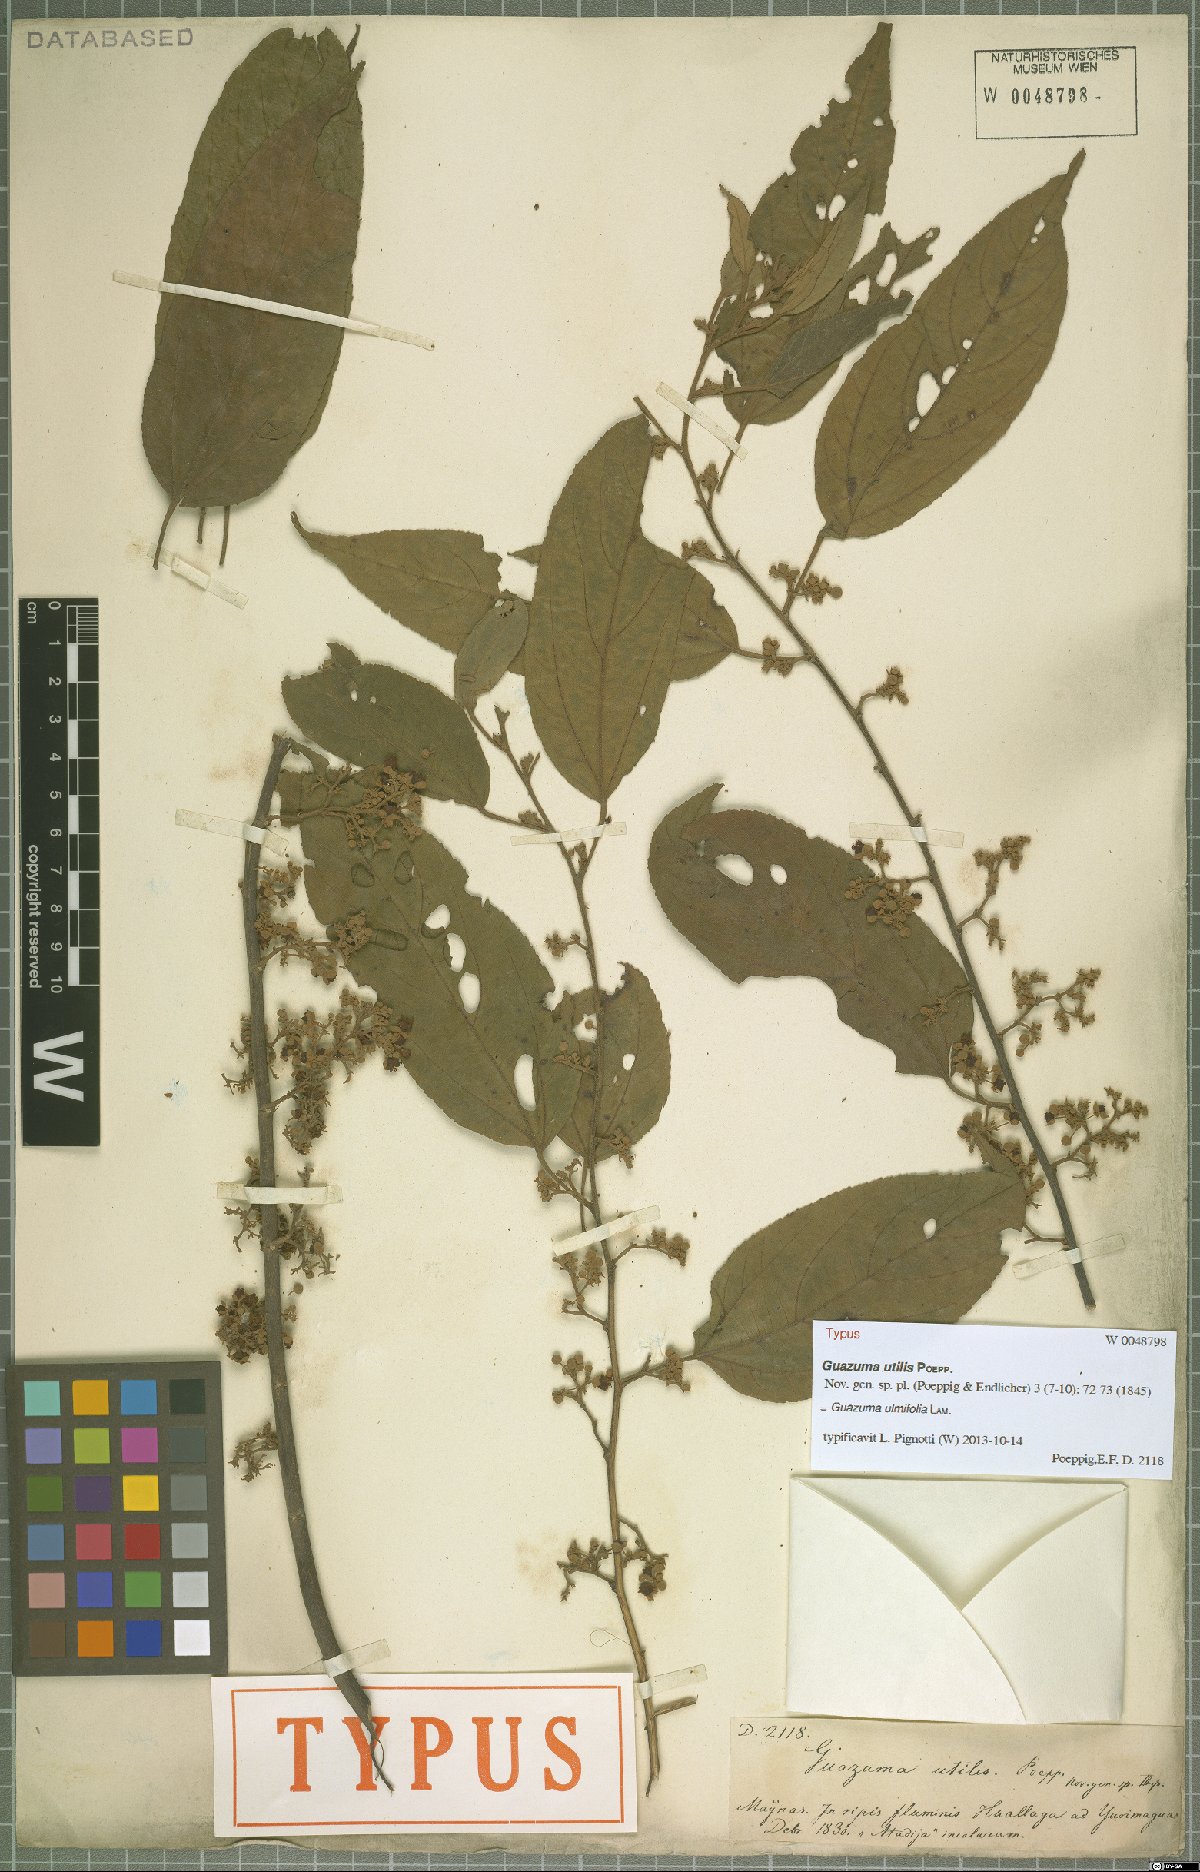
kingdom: Plantae
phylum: Tracheophyta
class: Magnoliopsida
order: Malvales
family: Malvaceae
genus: Guazuma
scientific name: Guazuma ulmifolia
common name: Bastard-cedar
